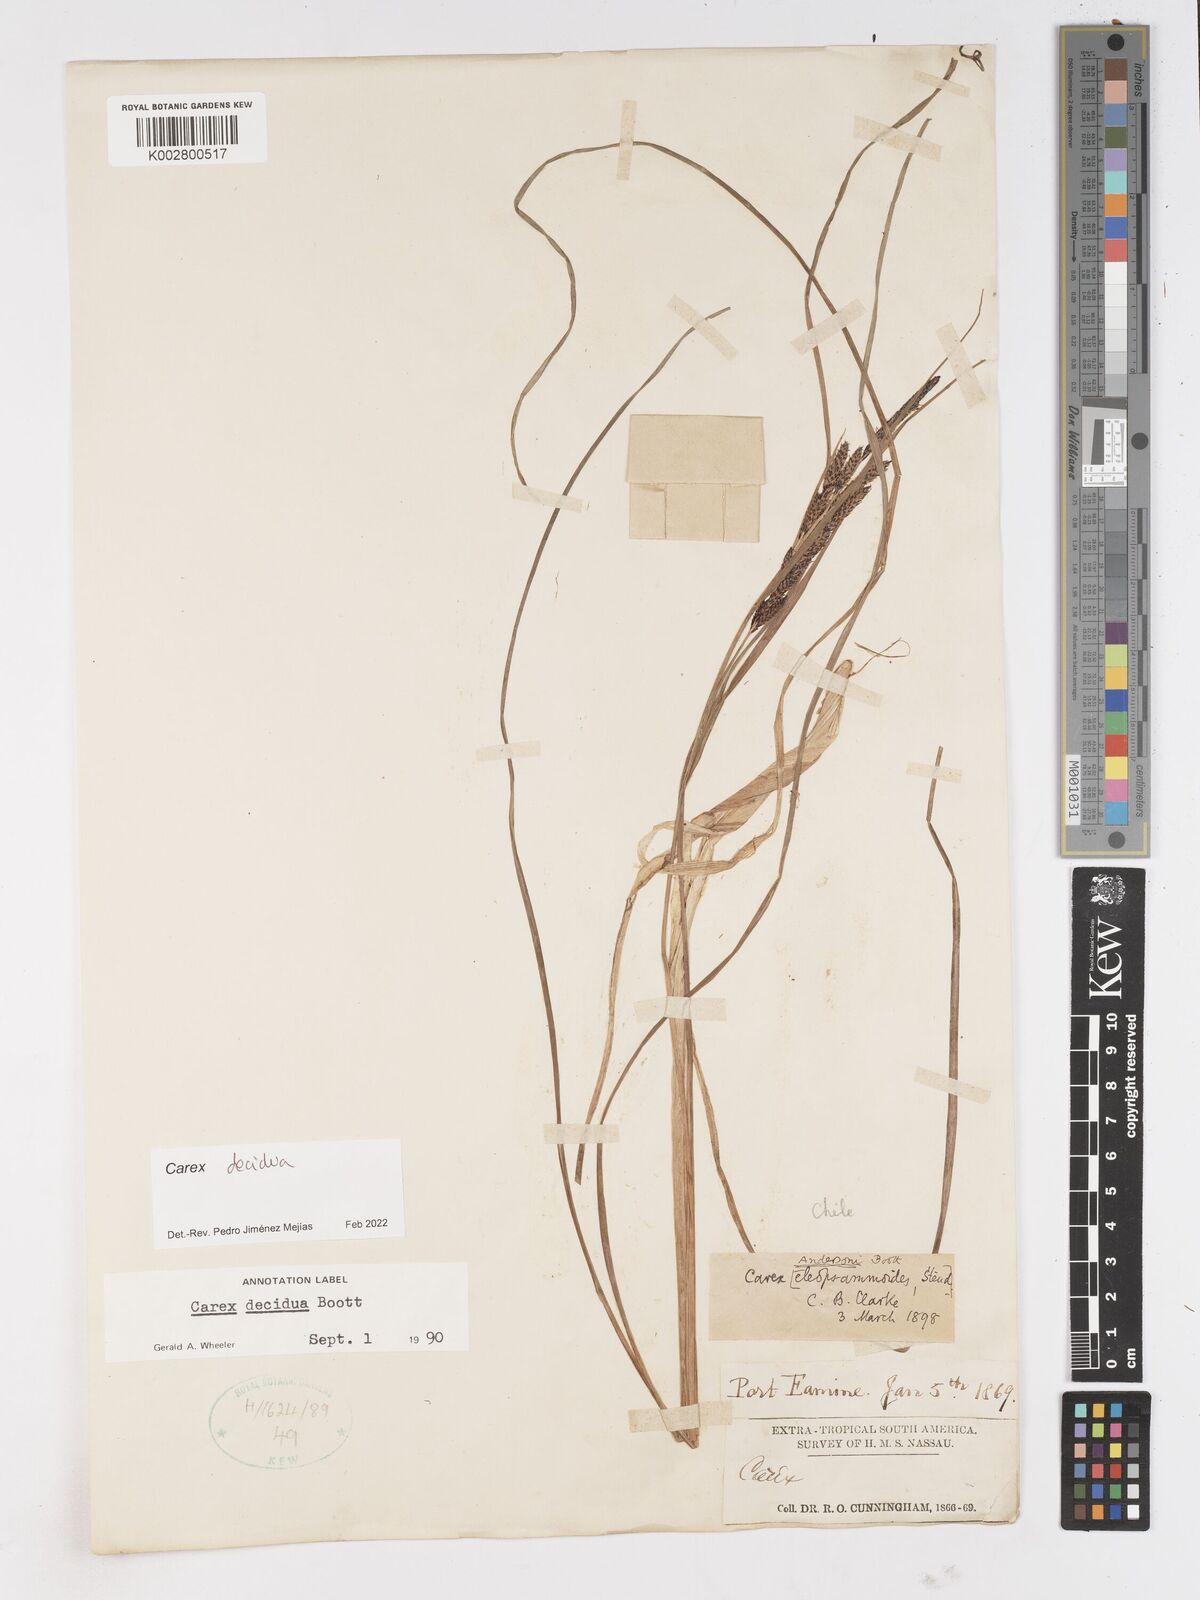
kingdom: Plantae
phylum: Tracheophyta
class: Liliopsida
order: Poales
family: Cyperaceae
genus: Carex
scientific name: Carex decidua
